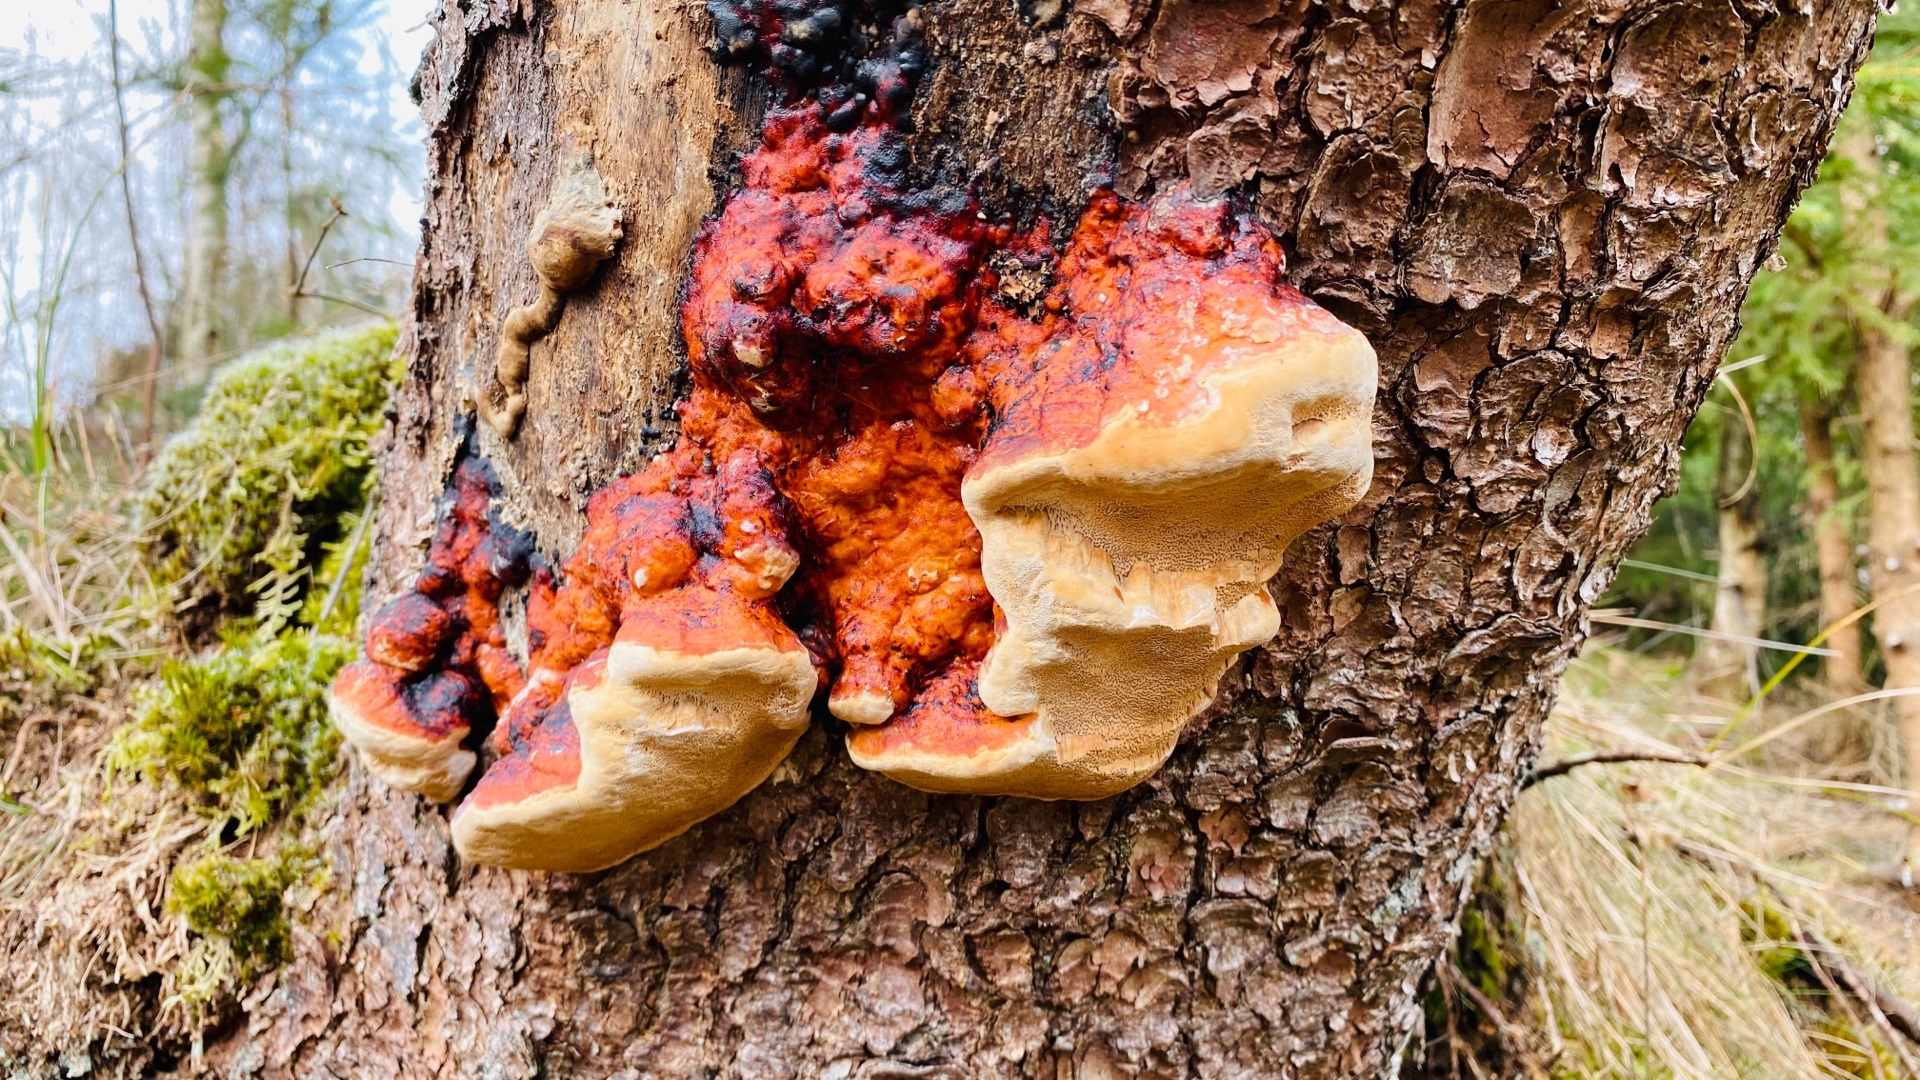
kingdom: Fungi
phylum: Basidiomycota
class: Agaricomycetes
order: Polyporales
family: Fomitopsidaceae
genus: Fomitopsis
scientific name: Fomitopsis pinicola
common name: Randbæltet hovporesvamp
